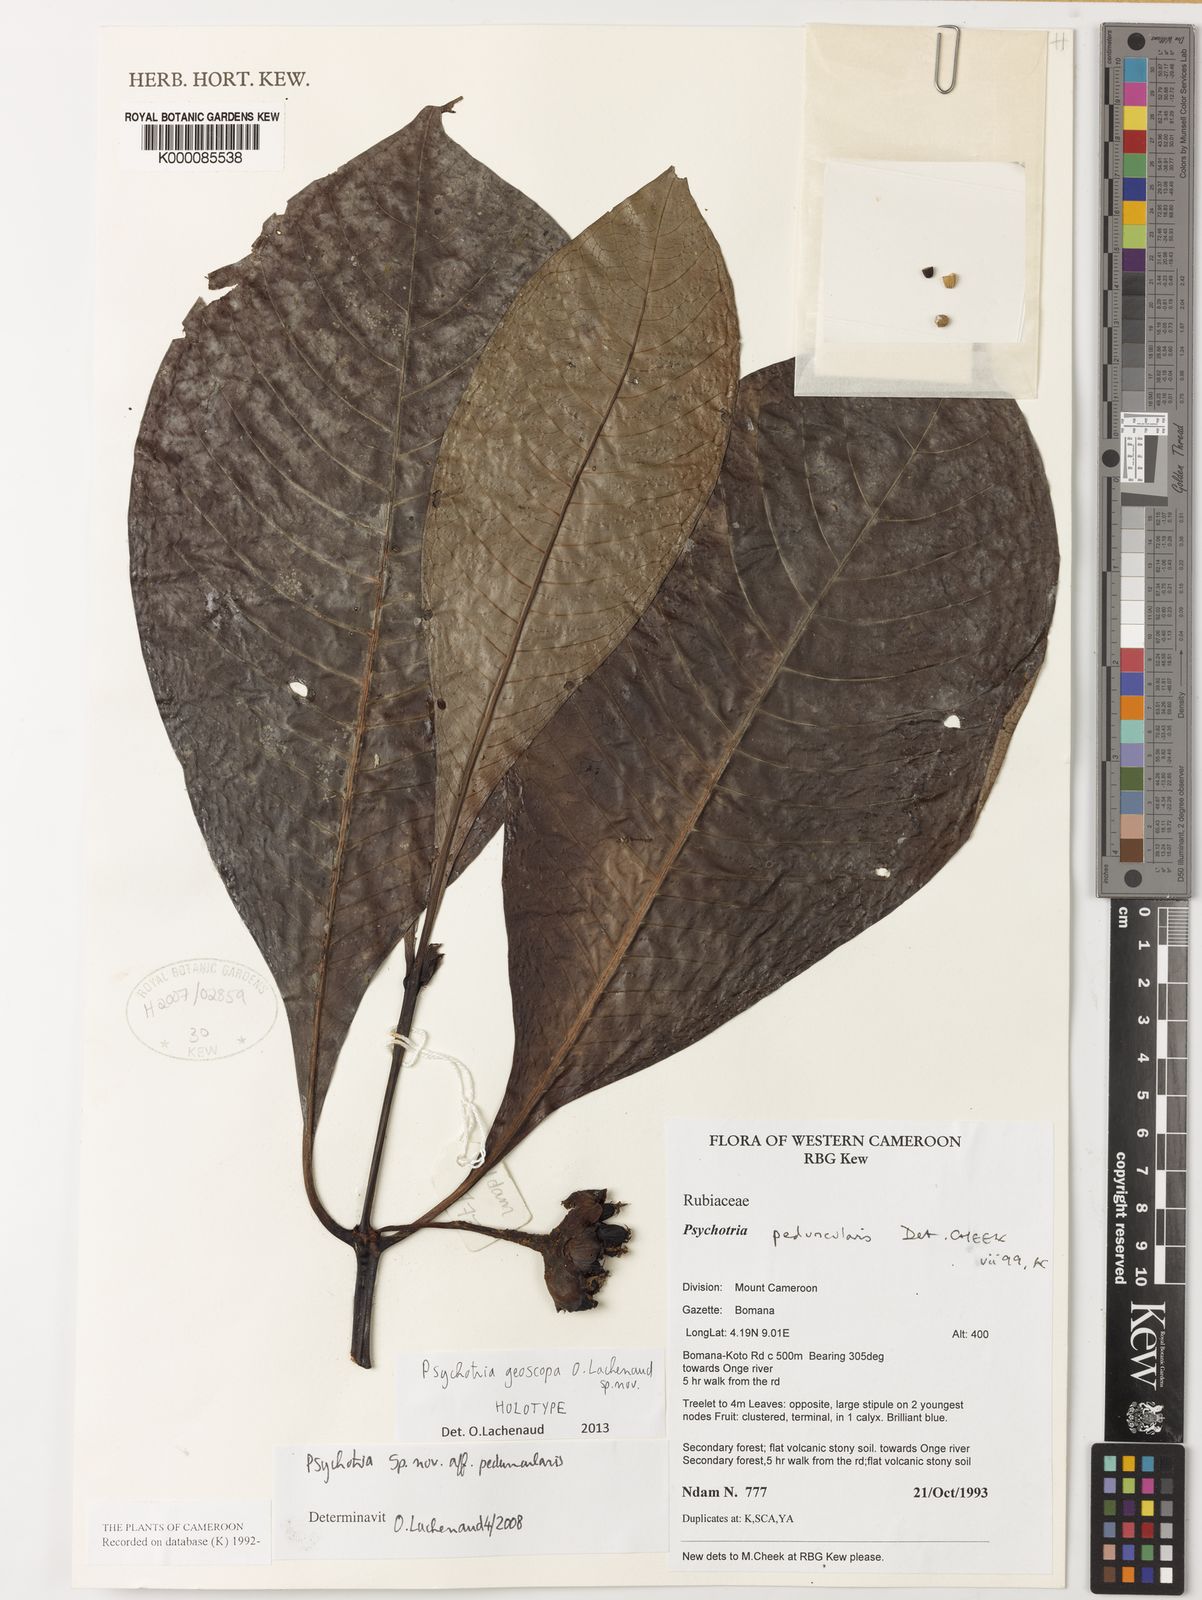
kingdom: Plantae
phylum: Tracheophyta
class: Magnoliopsida
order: Gentianales
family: Rubiaceae
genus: Psychotria
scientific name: Psychotria
